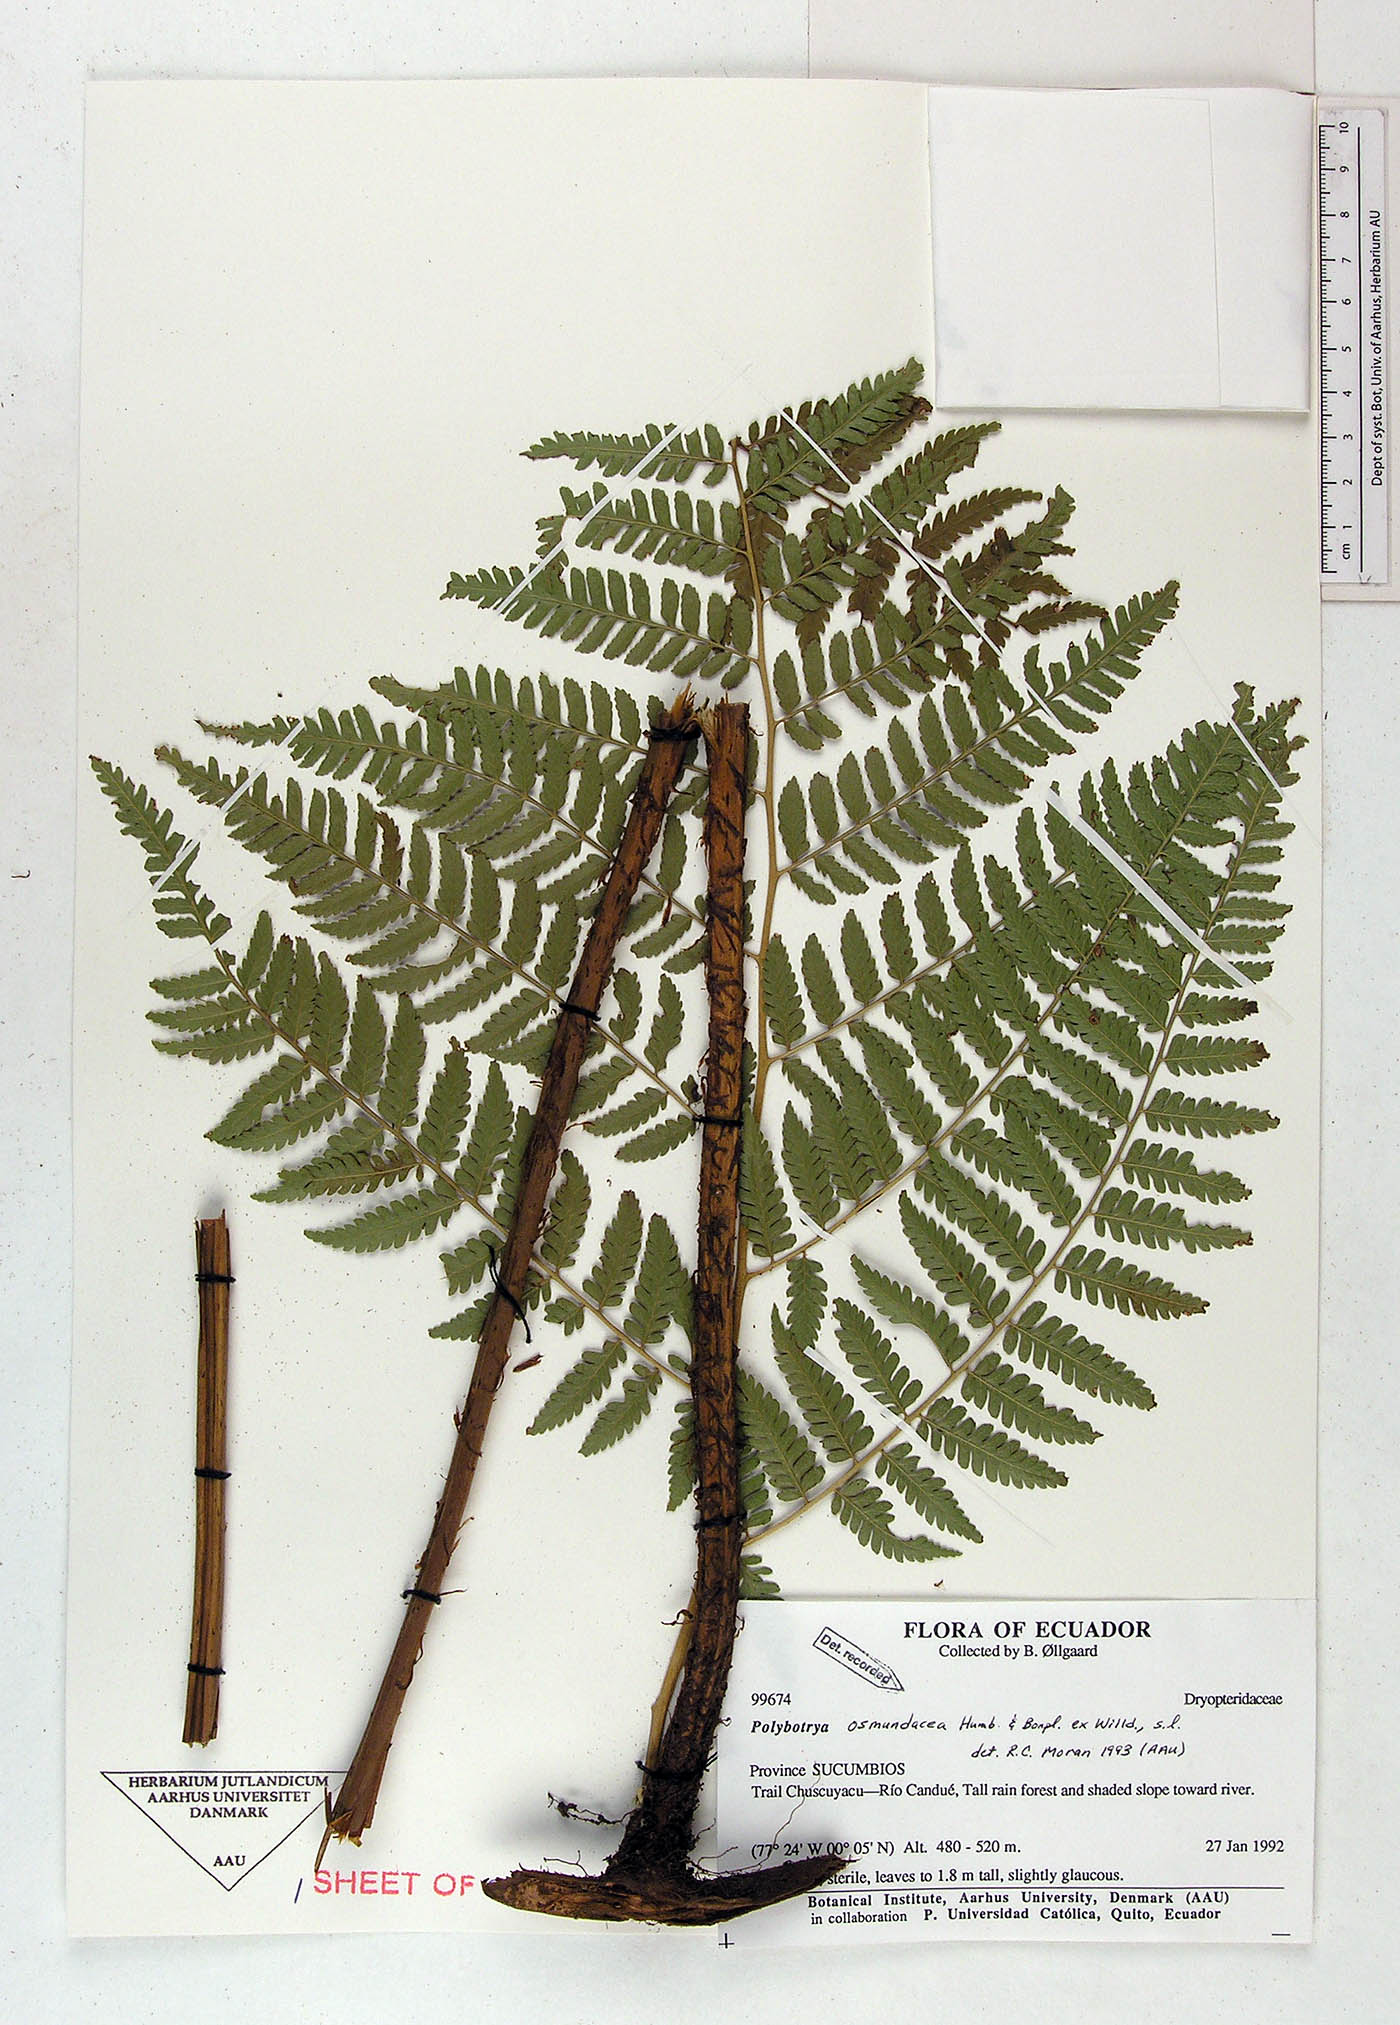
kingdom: Plantae
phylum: Tracheophyta
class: Polypodiopsida
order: Polypodiales
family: Dryopteridaceae
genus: Polybotrya
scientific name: Polybotrya osmundacea
